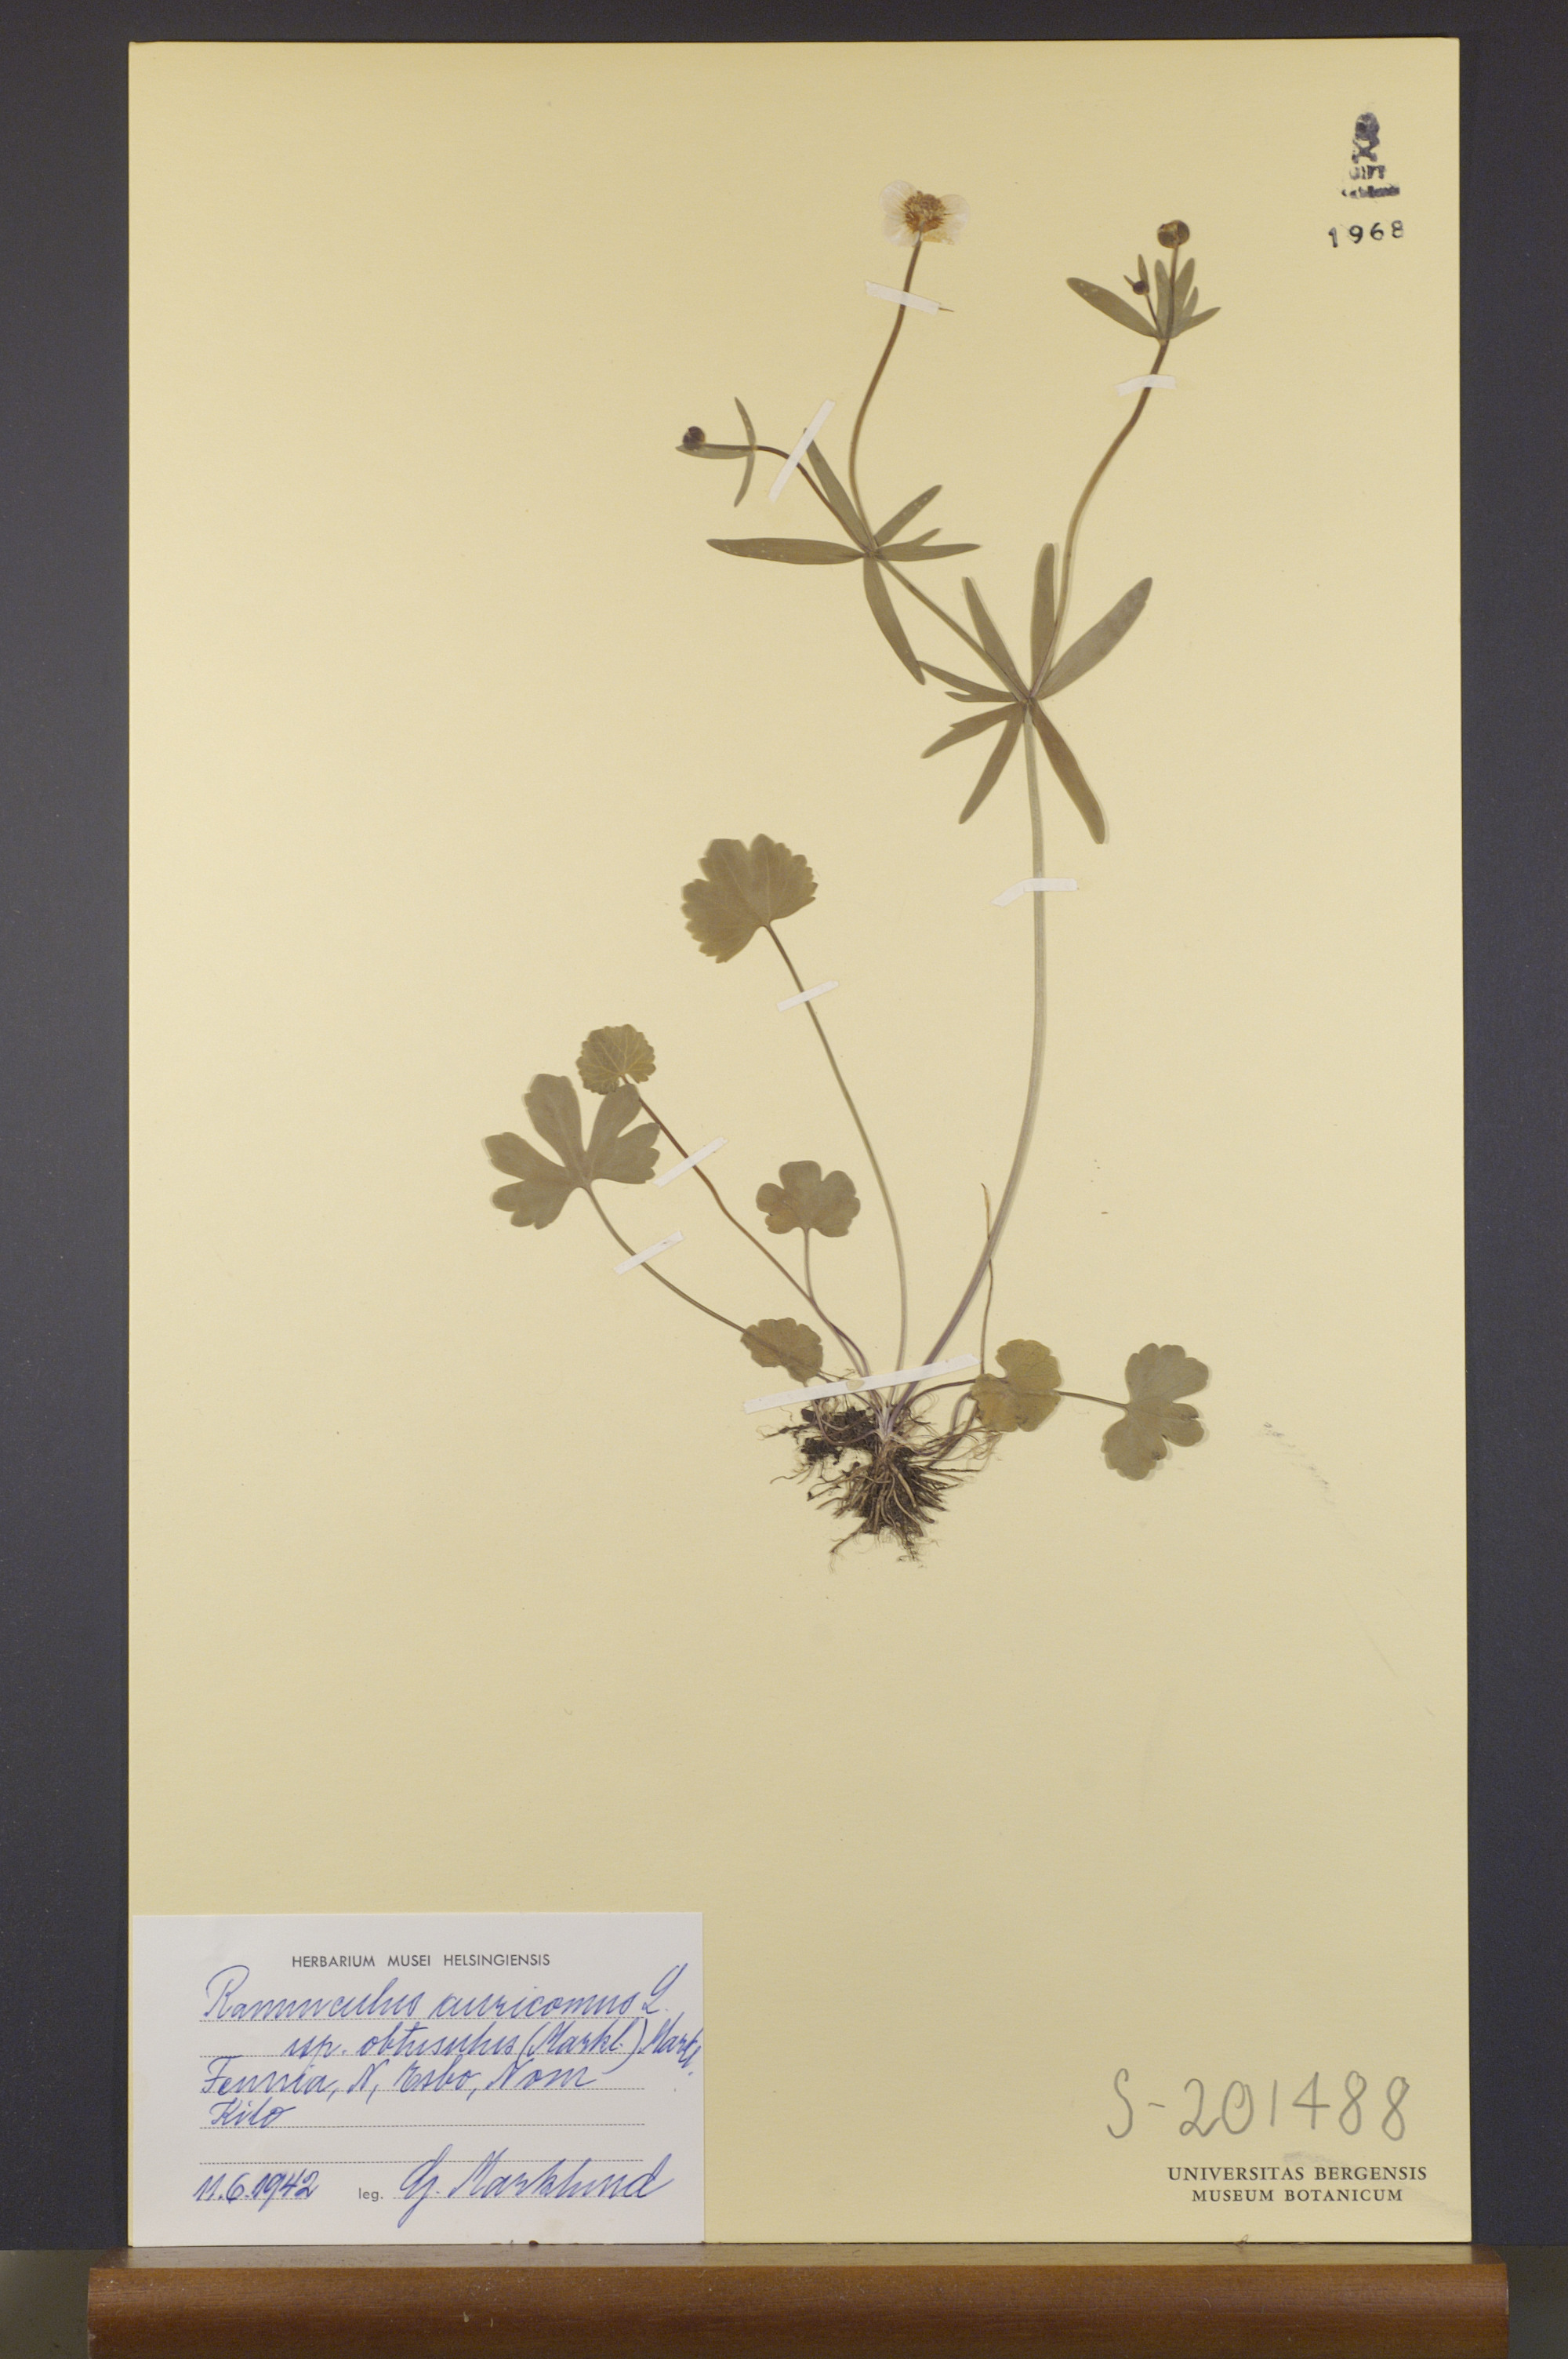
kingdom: Plantae
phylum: Tracheophyta
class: Magnoliopsida
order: Ranunculales
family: Ranunculaceae
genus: Ranunculus
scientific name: Ranunculus auricomus
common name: Goldilocks buttercup
